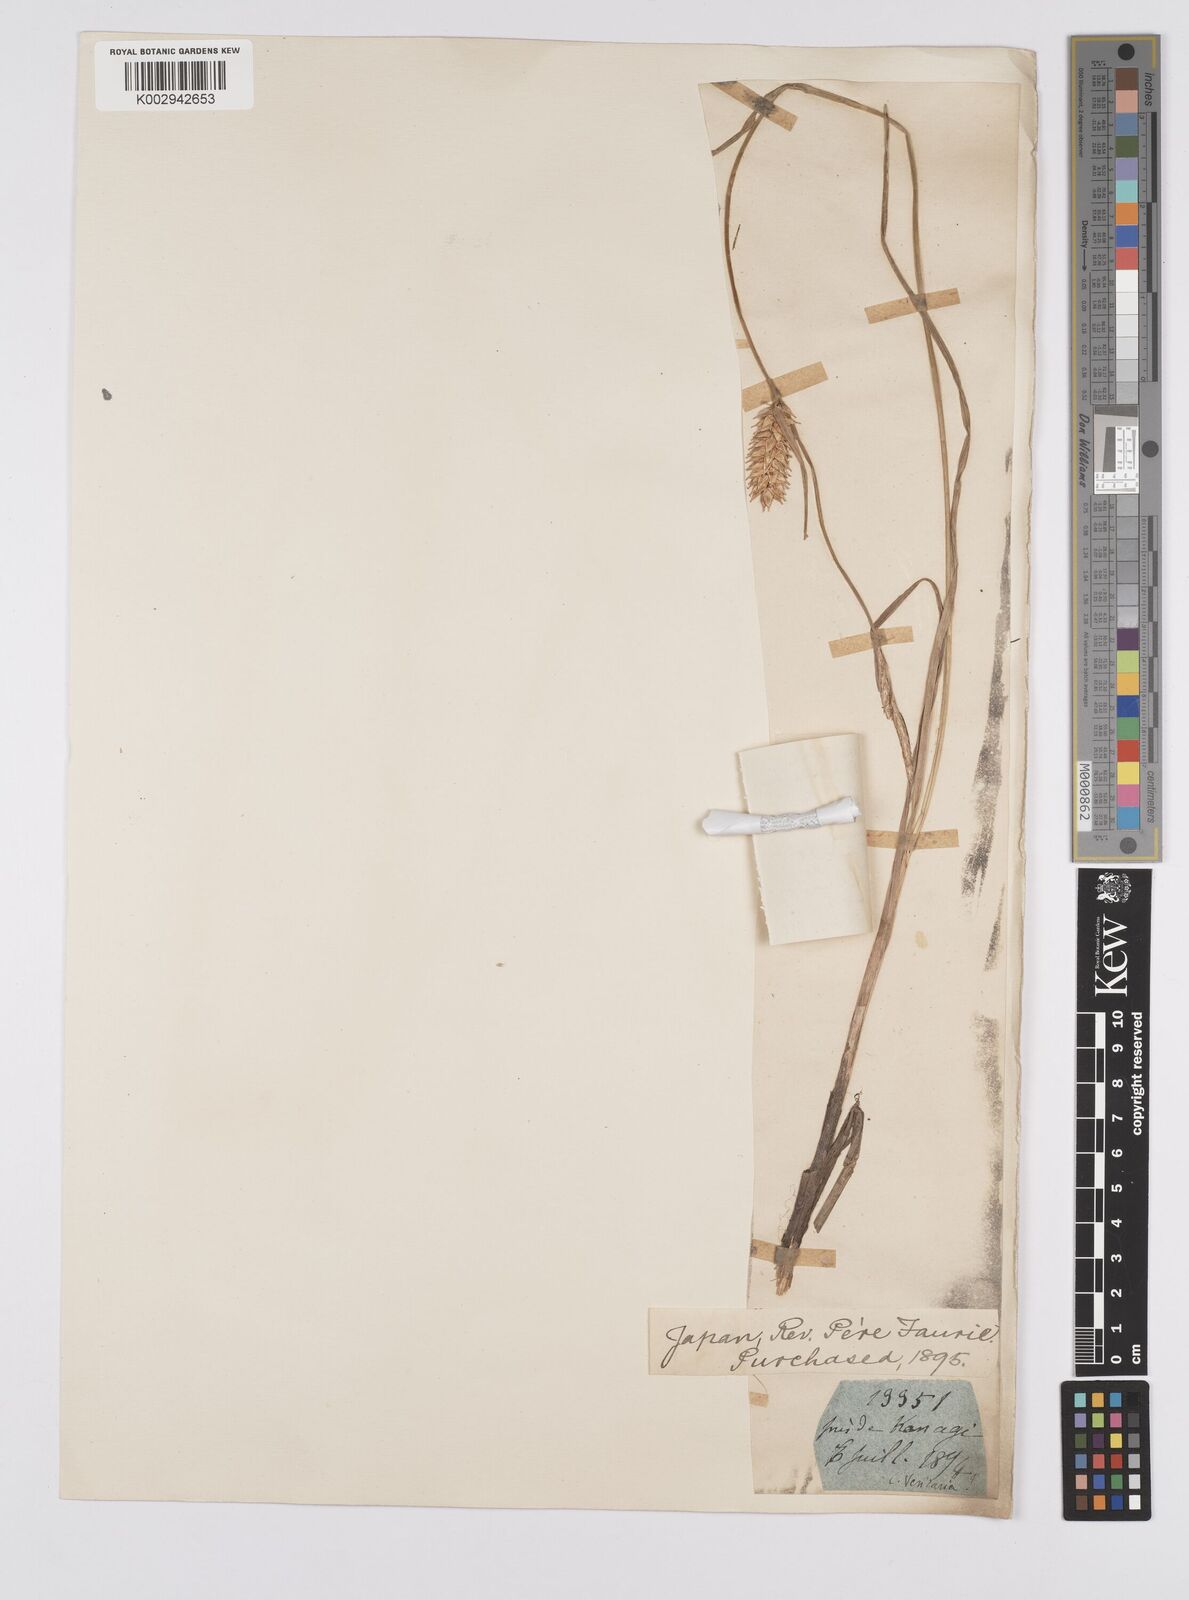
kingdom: Plantae
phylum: Tracheophyta
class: Liliopsida
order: Poales
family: Cyperaceae
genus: Carex
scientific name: Carex vesicaria
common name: Bladder-sedge
